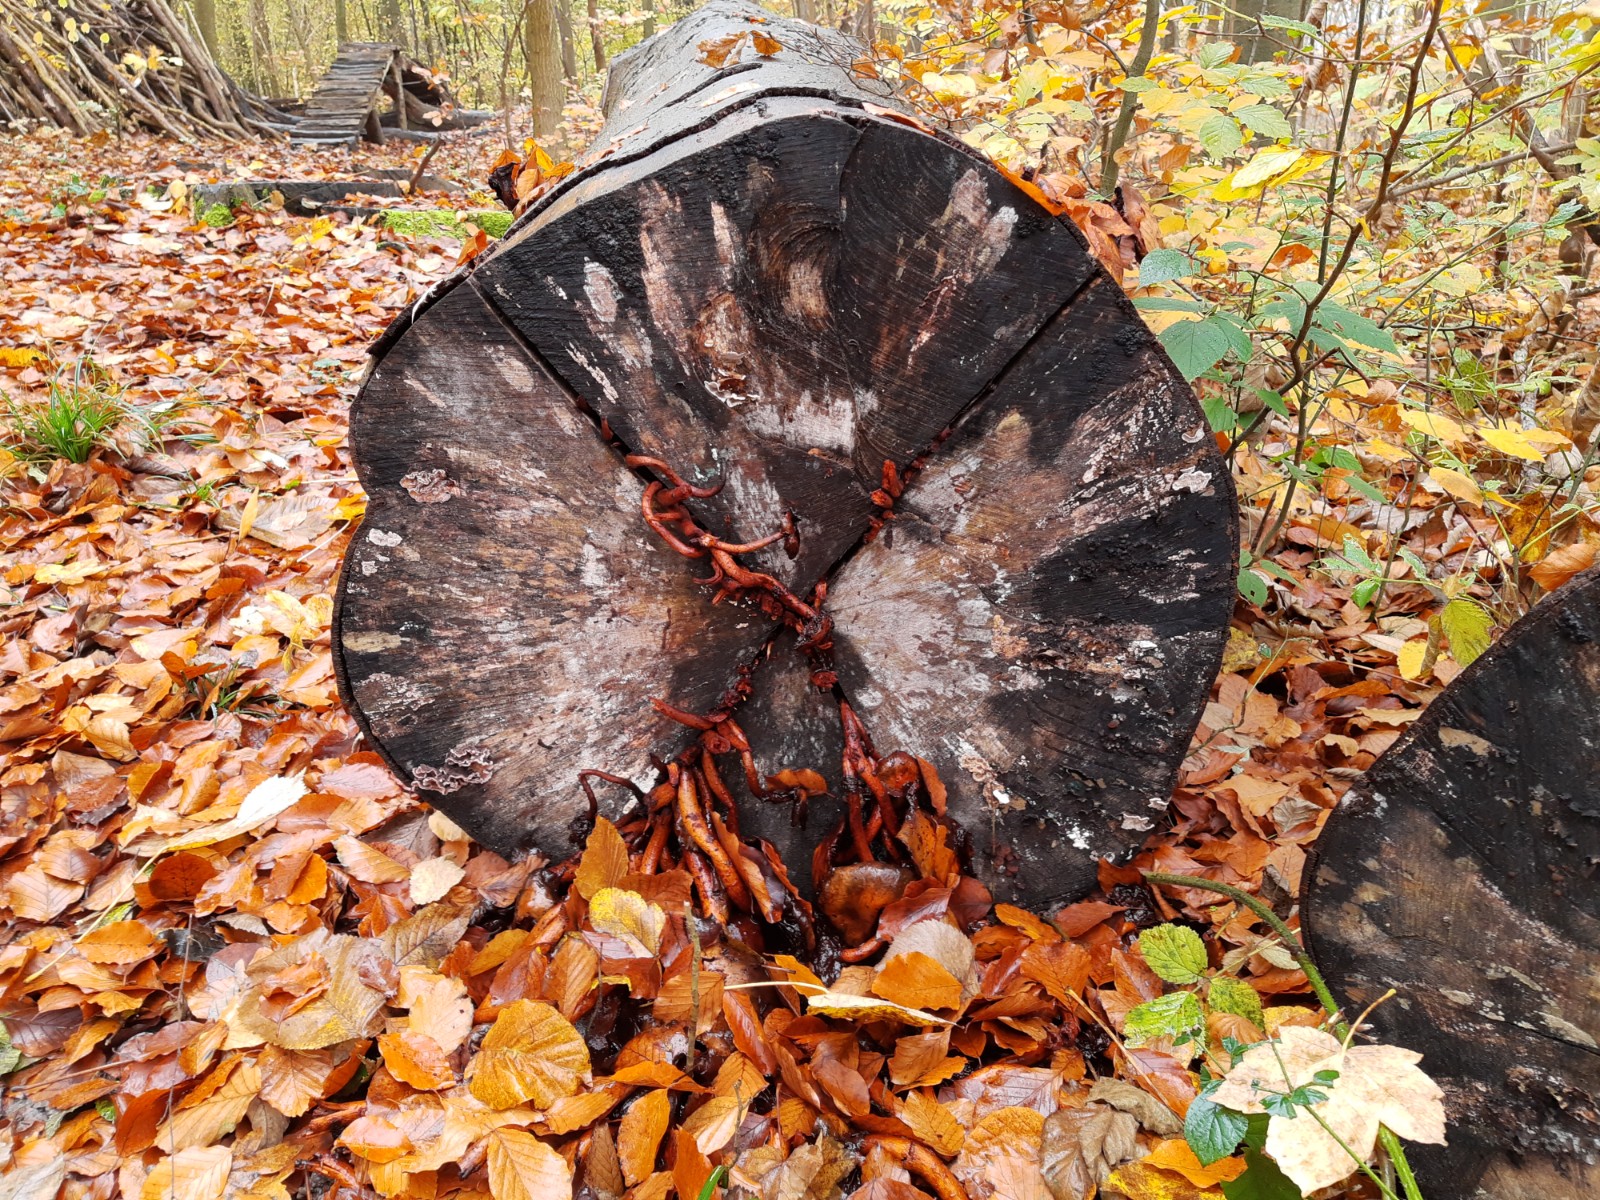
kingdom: Fungi
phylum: Basidiomycota
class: Agaricomycetes
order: Agaricales
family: Strophariaceae
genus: Pholiota
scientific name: Pholiota adiposa
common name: højtsiddende skælhat
